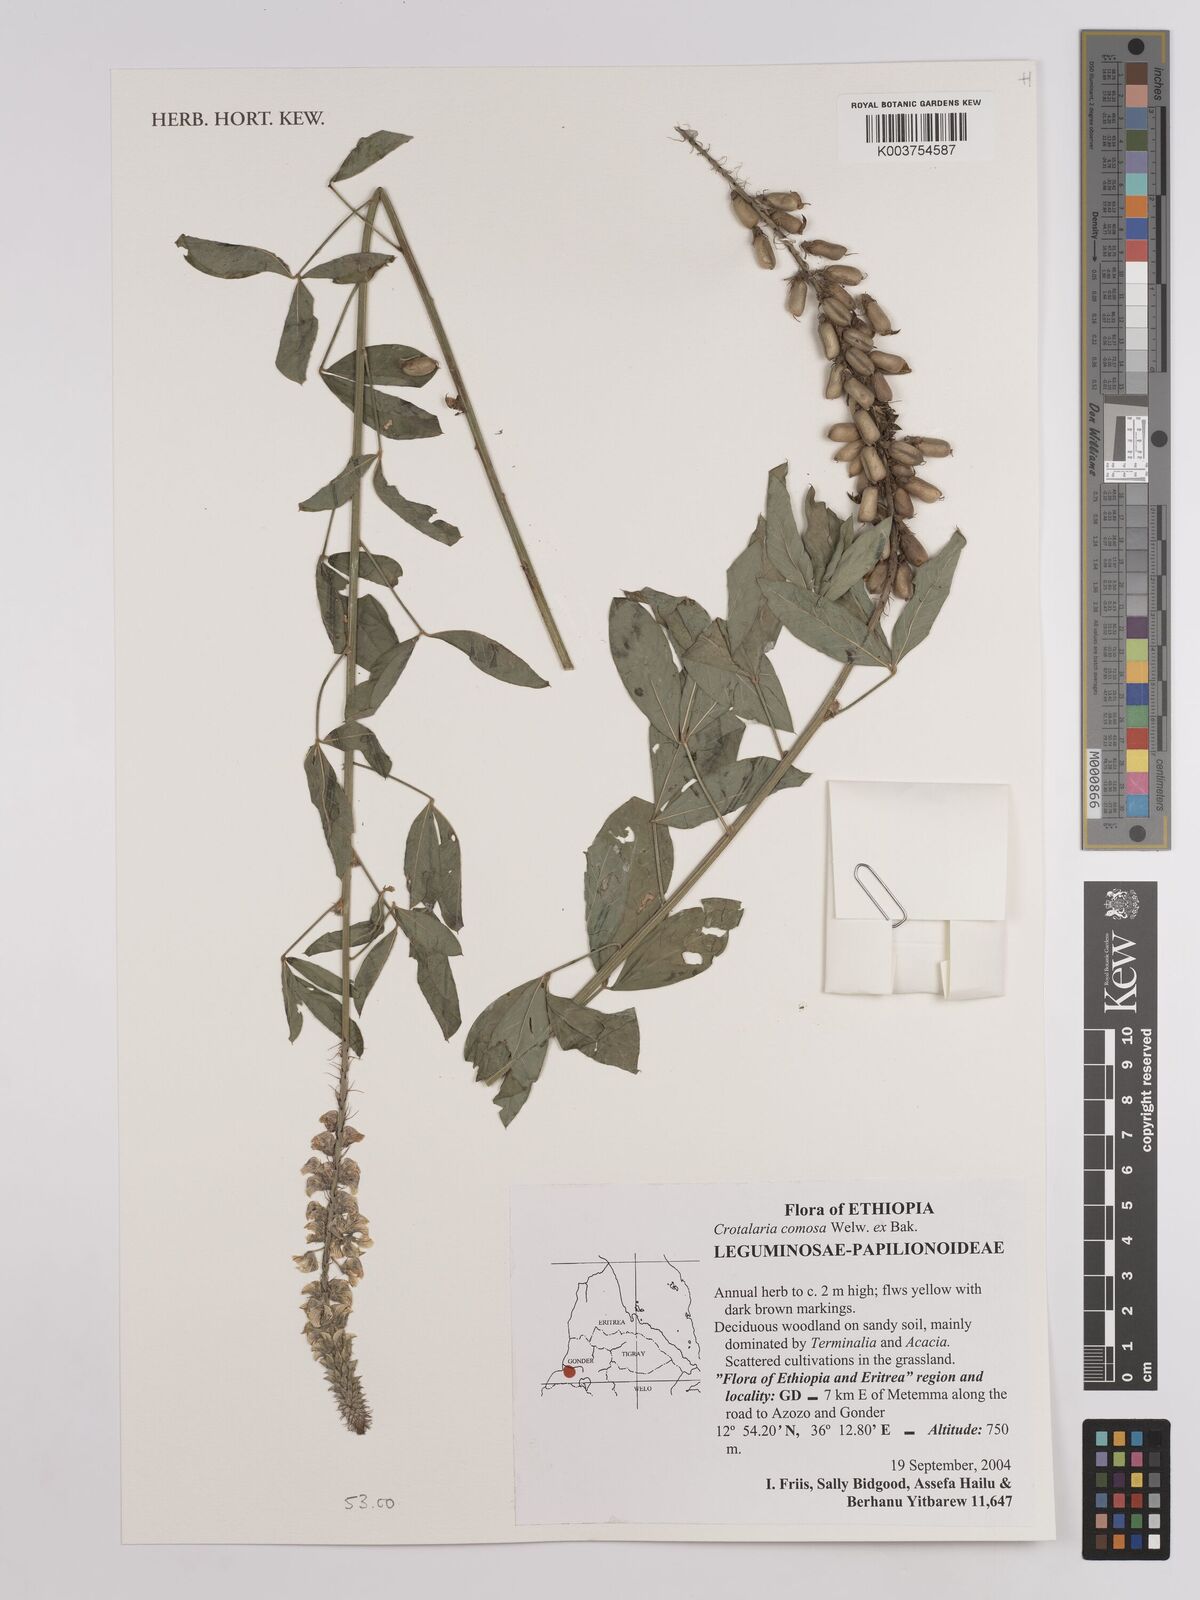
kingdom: Plantae
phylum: Tracheophyta
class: Magnoliopsida
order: Fabales
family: Fabaceae
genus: Crotalaria
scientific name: Crotalaria comosa
